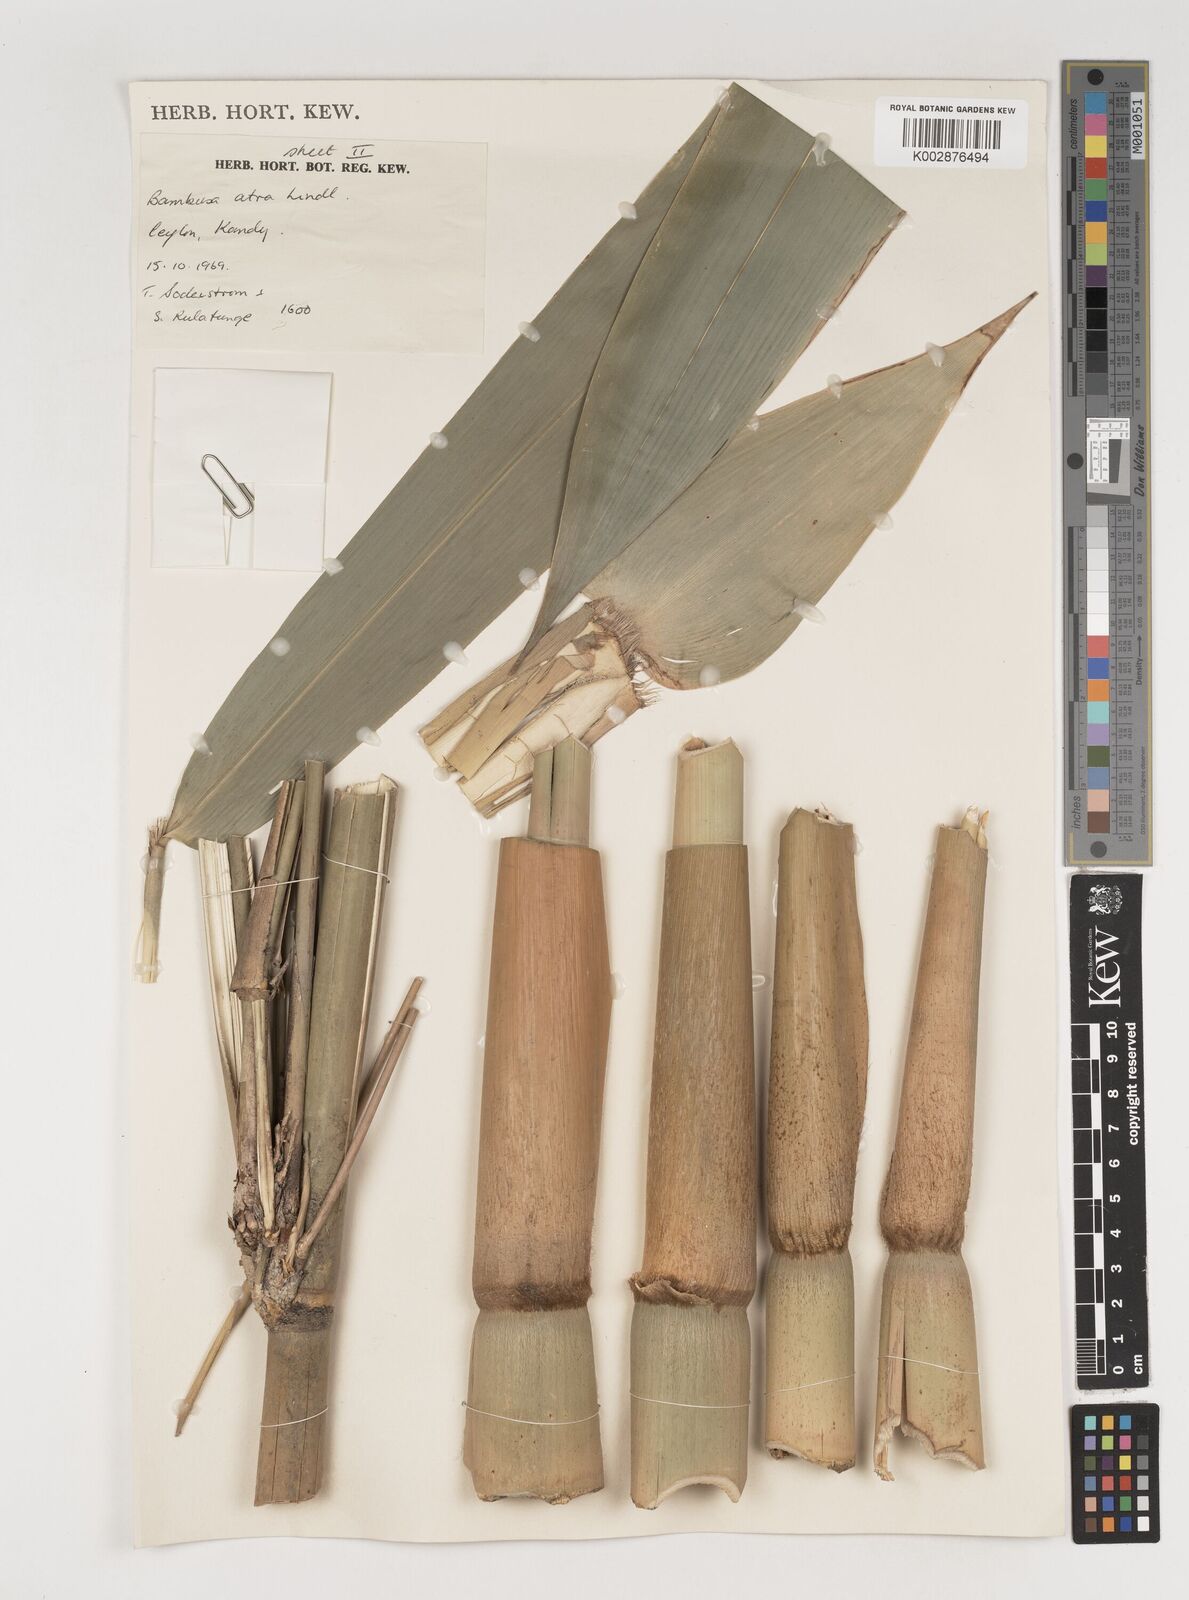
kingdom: Plantae
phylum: Tracheophyta
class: Liliopsida
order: Poales
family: Poaceae
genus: Bambusa
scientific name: Bambusa
